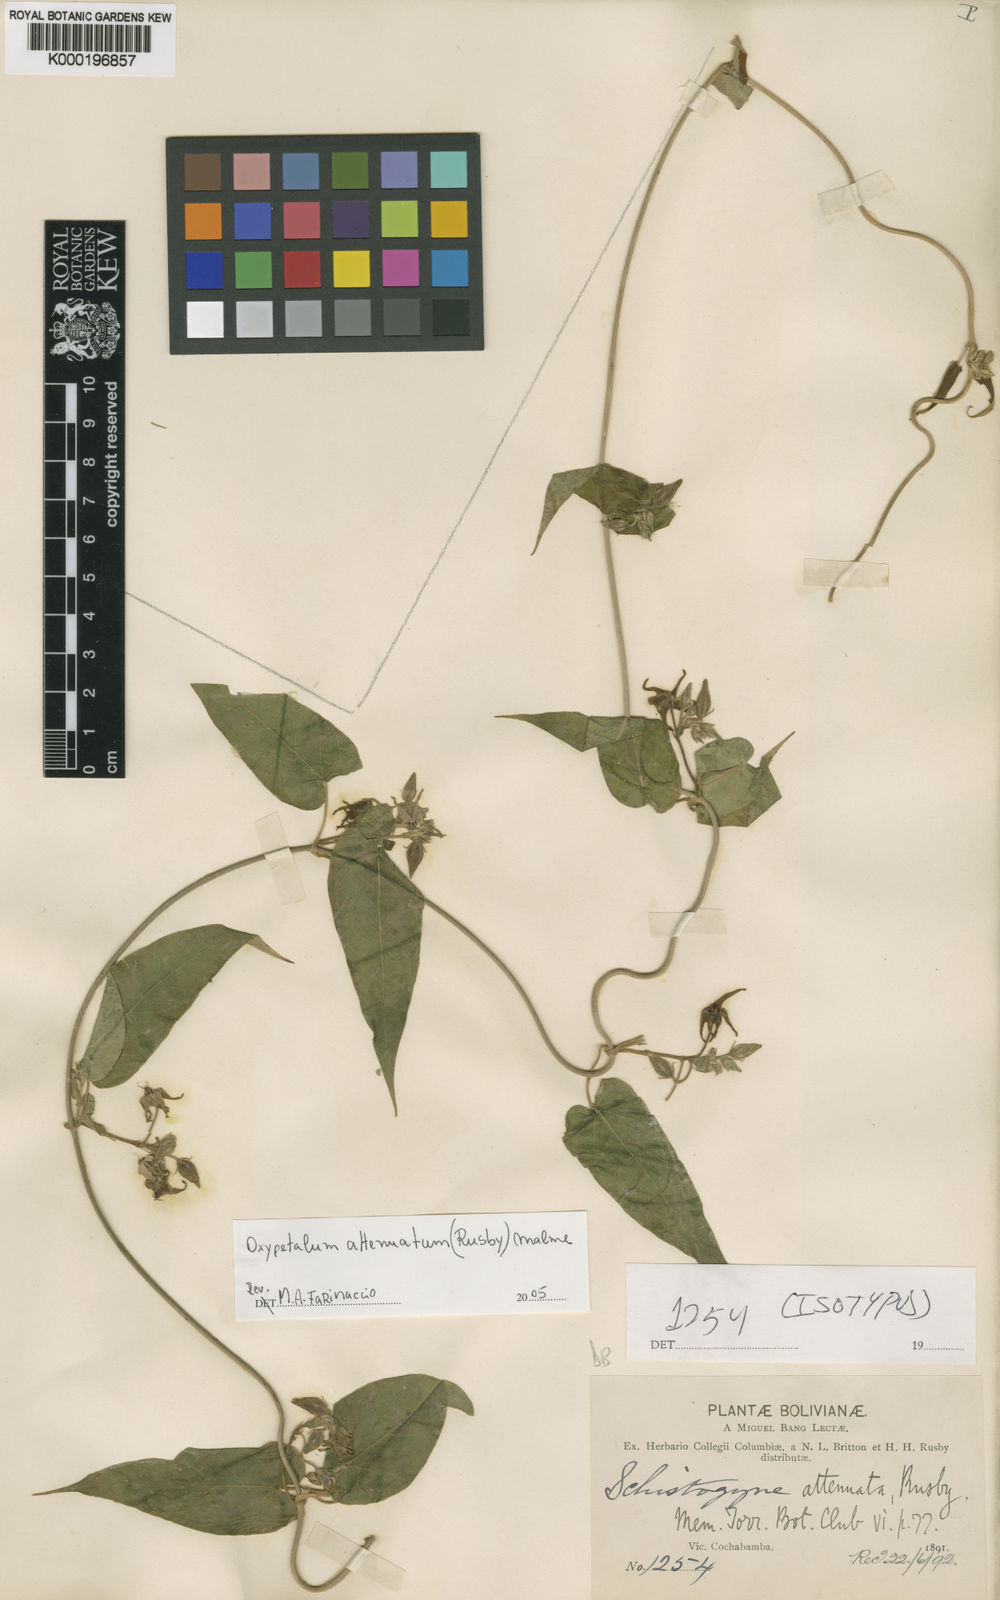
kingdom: Plantae
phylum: Tracheophyta
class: Magnoliopsida
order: Gentianales
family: Apocynaceae
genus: Oxypetalum
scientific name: Oxypetalum attenuatum
